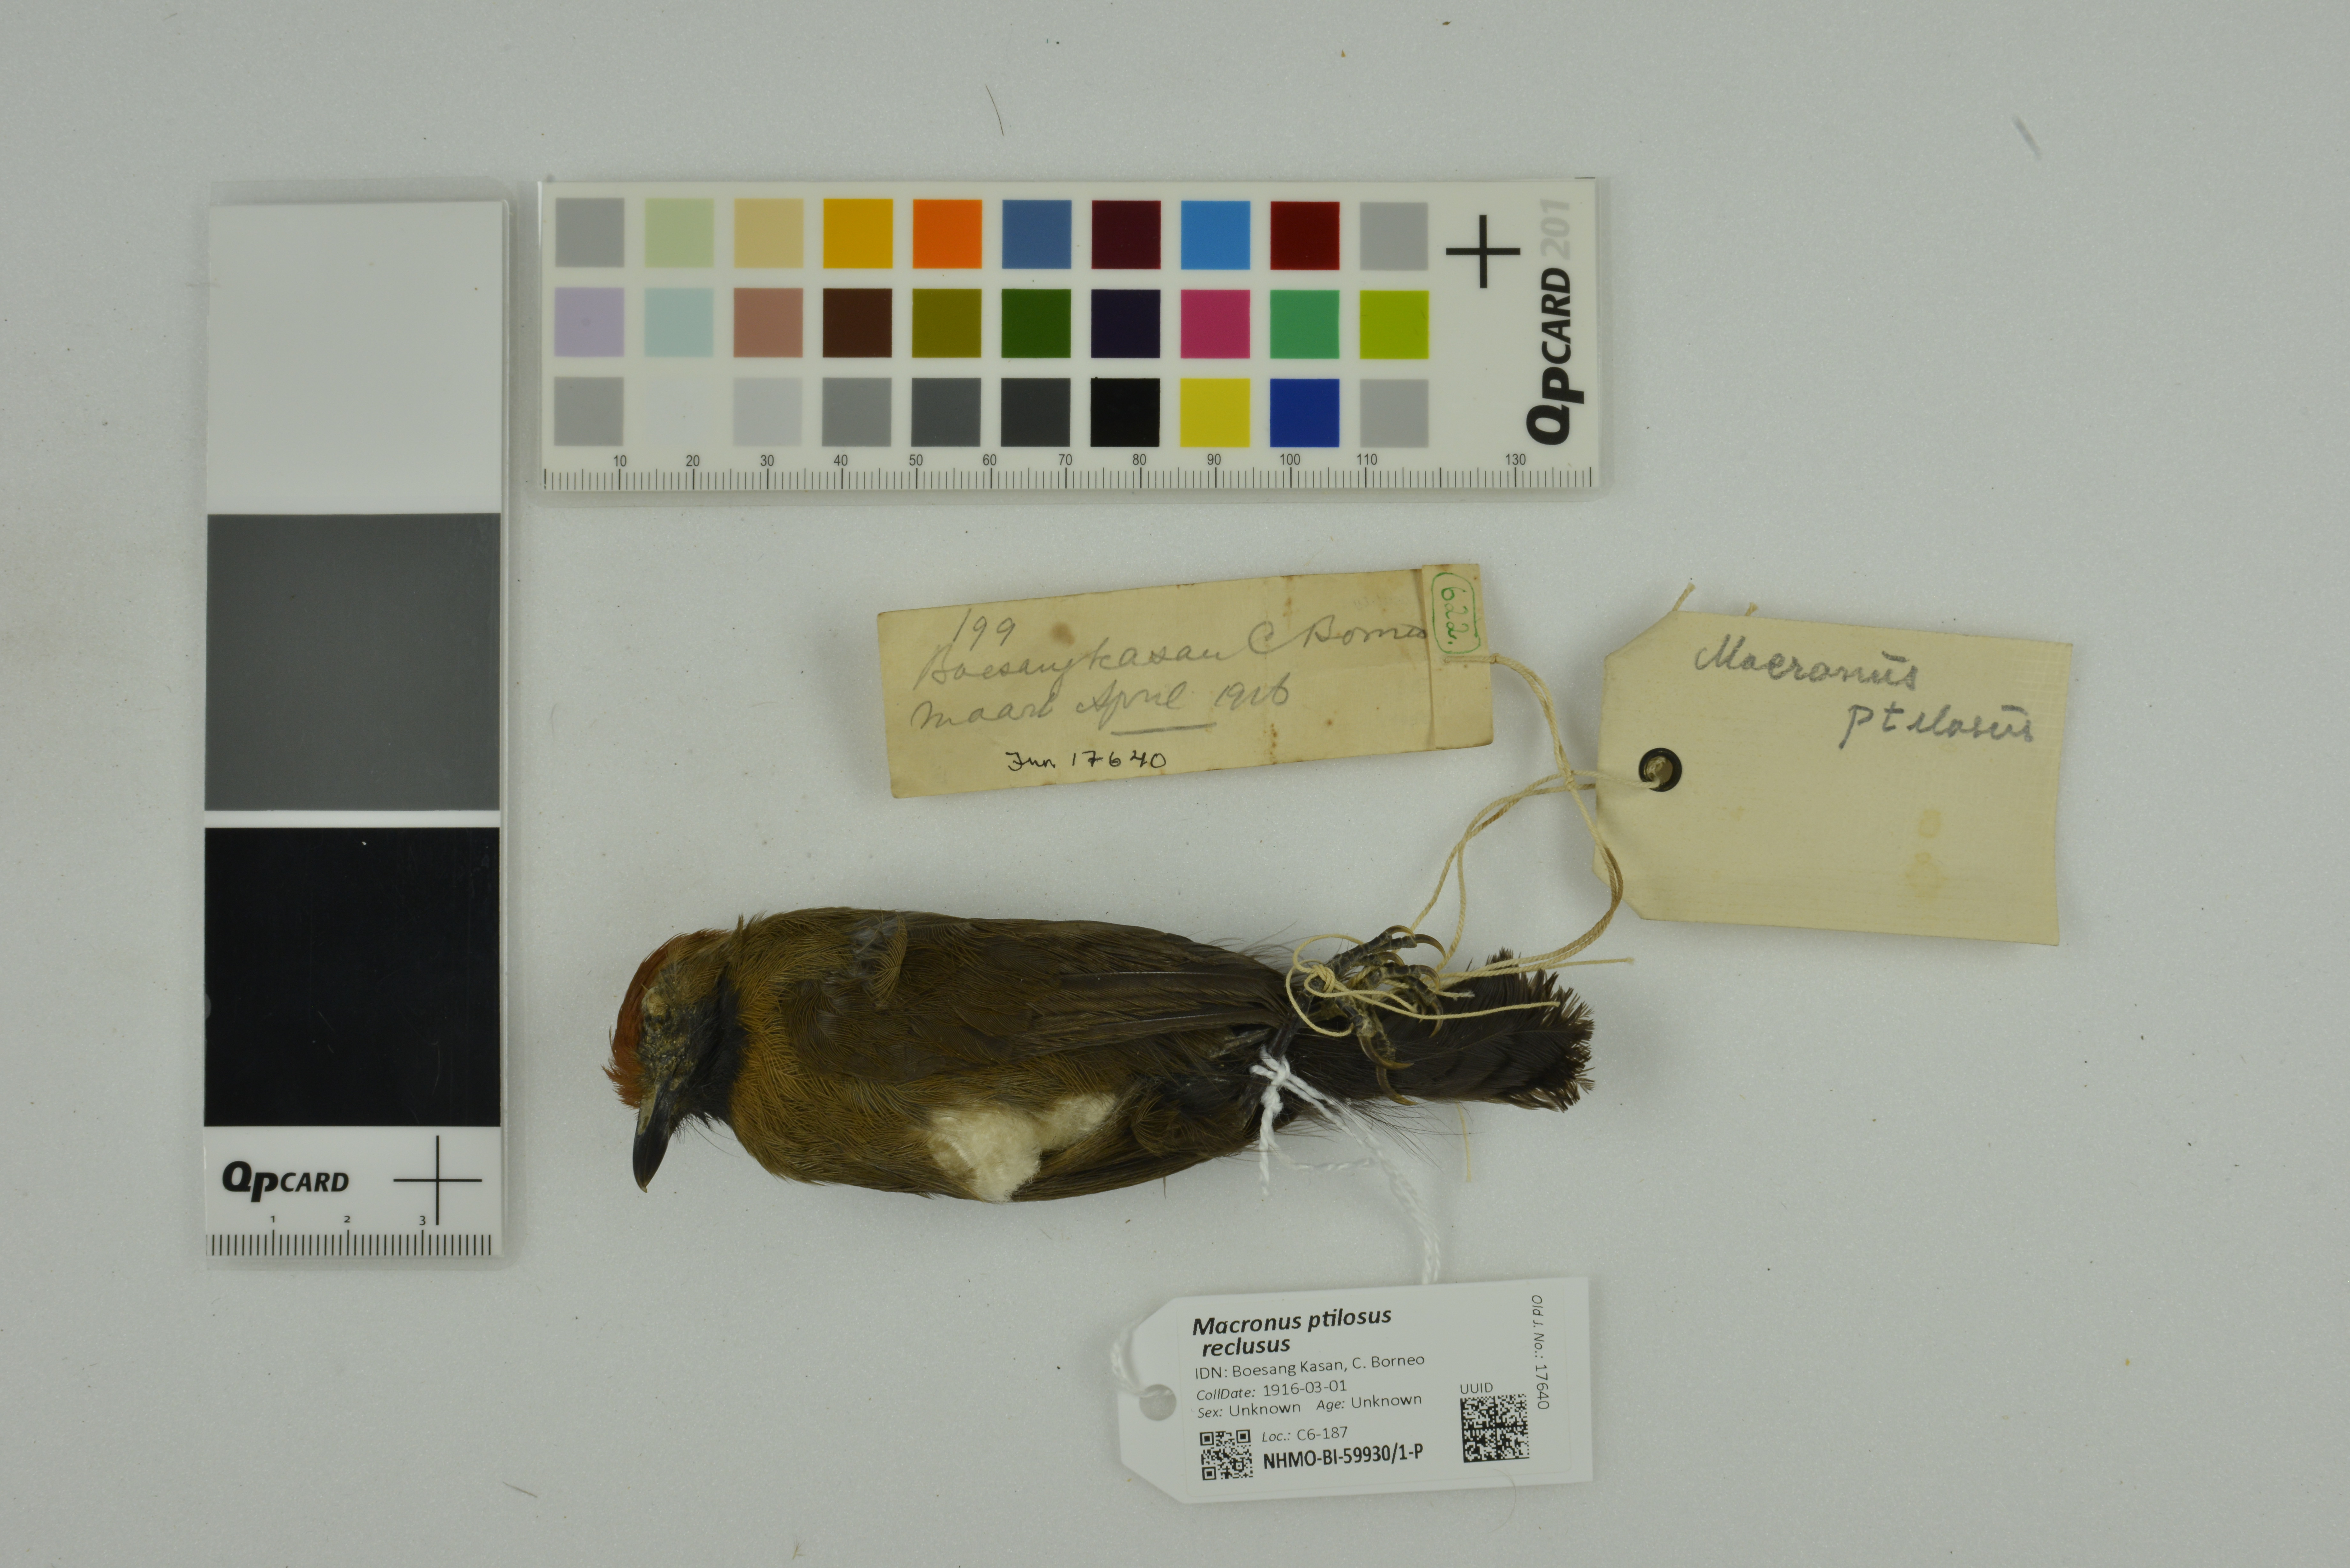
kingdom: Animalia
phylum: Chordata
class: Aves
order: Passeriformes
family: Timaliidae
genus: Macronus
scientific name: Macronus ptilosus
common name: Fluffy-backed tit-babbler
